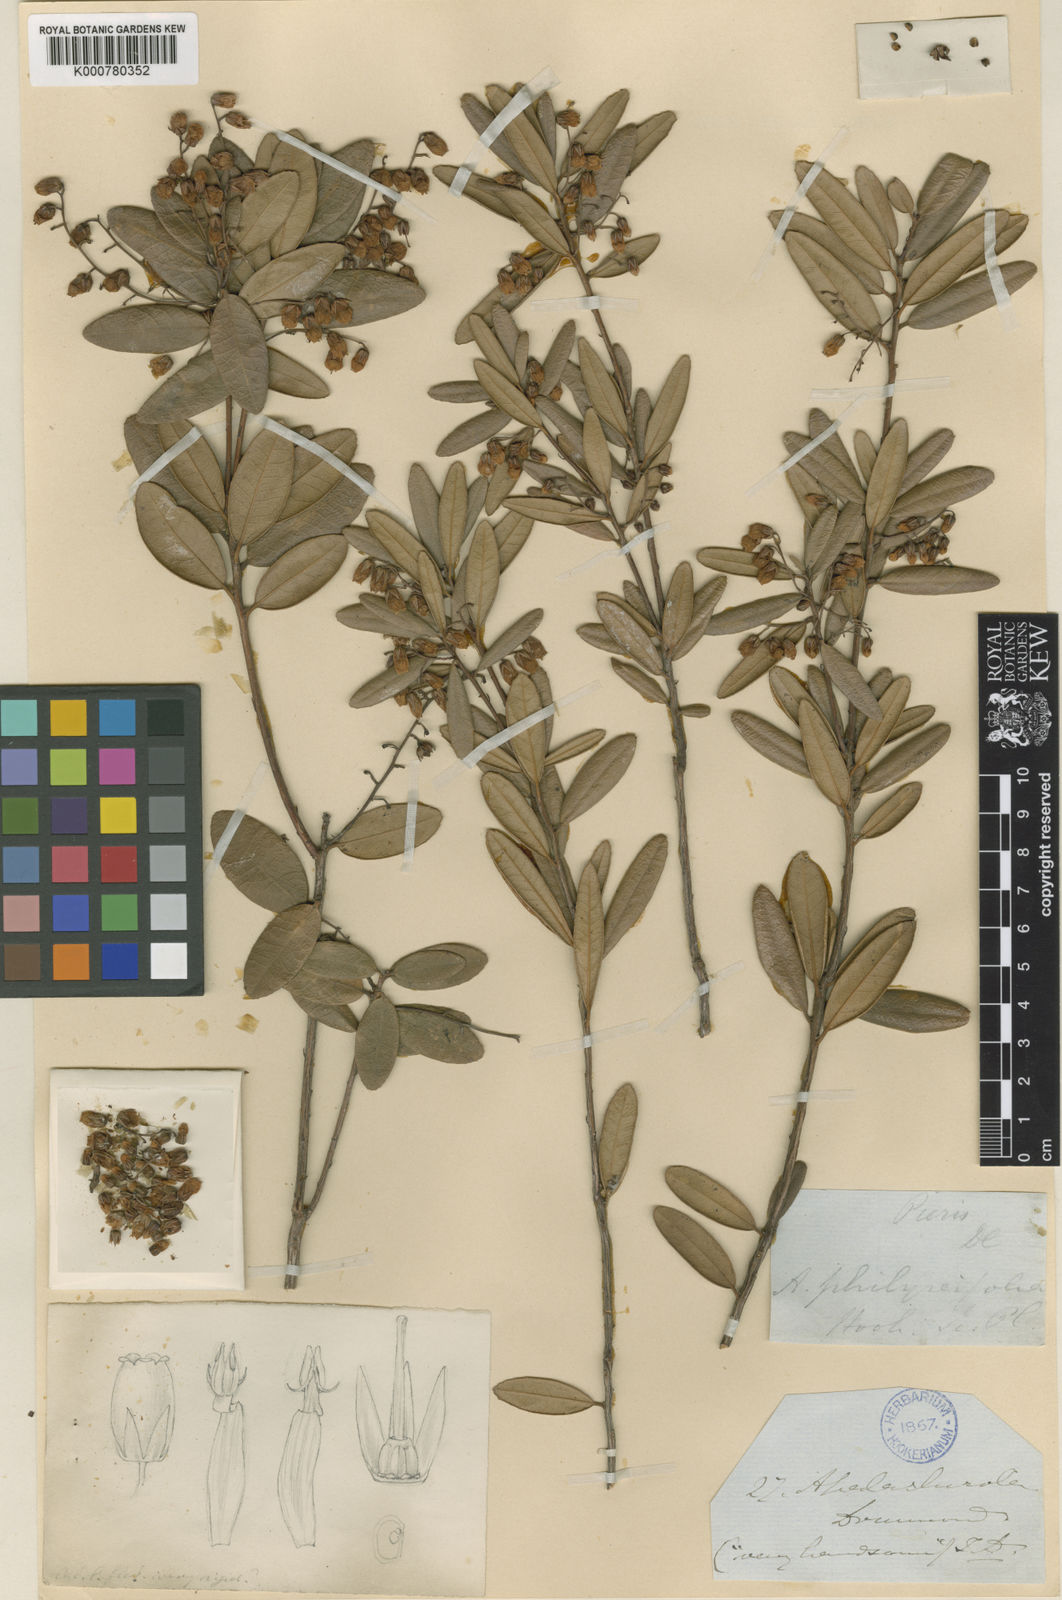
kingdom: Plantae
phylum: Tracheophyta
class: Magnoliopsida
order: Ericales
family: Ericaceae
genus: Pieris
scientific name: Pieris phillyreifolia
